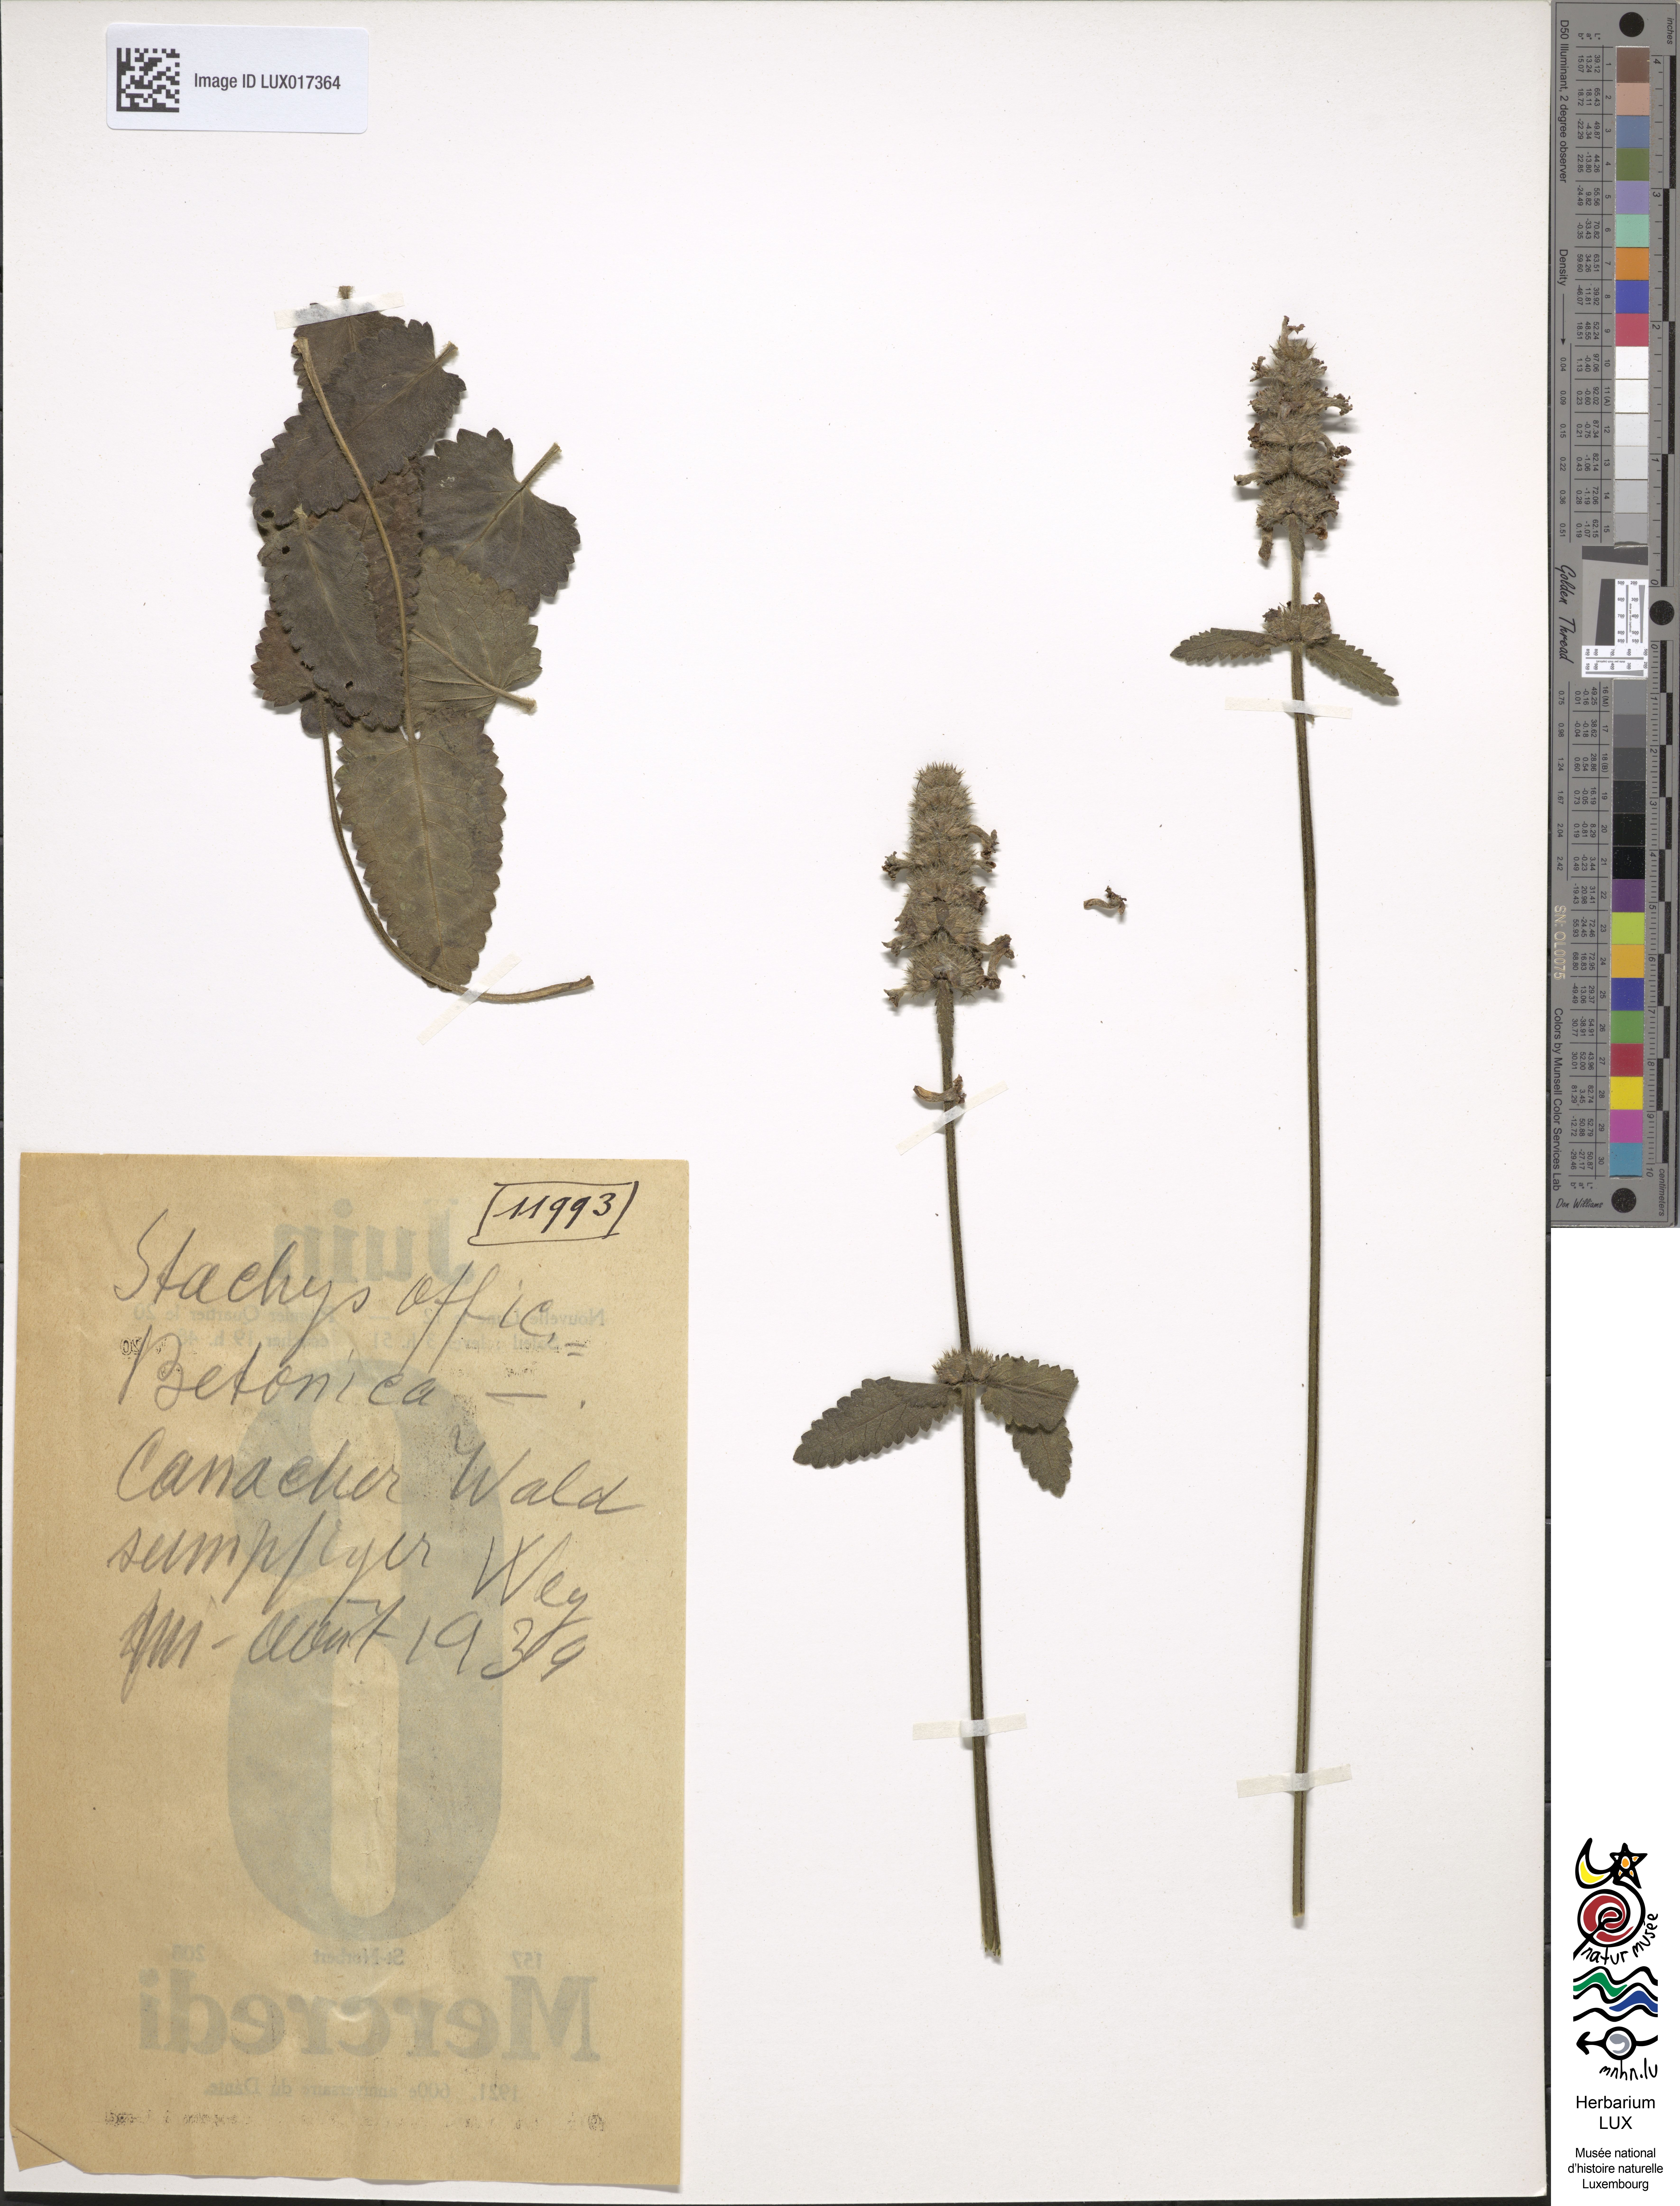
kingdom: Plantae
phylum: Tracheophyta
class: Magnoliopsida
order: Lamiales
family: Lamiaceae
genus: Betonica
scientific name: Betonica officinalis
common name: Bishop's-wort
